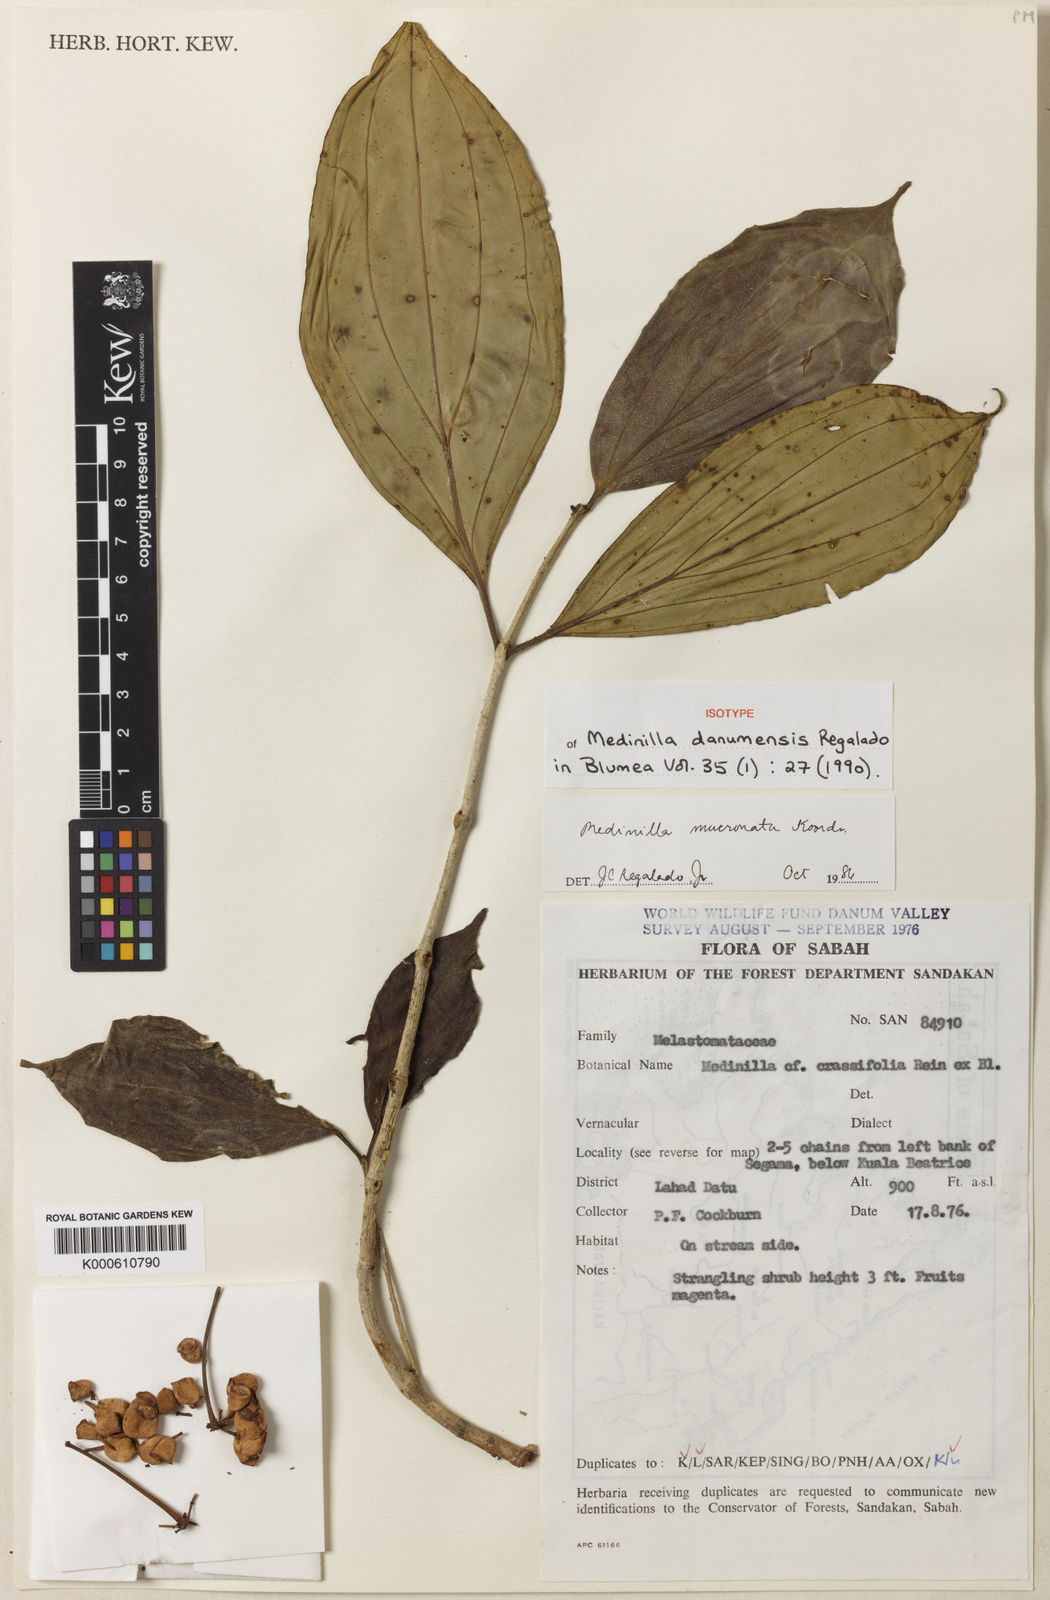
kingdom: Plantae
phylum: Tracheophyta
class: Magnoliopsida
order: Myrtales
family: Melastomataceae
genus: Medinilla
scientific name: Medinilla mucronata
